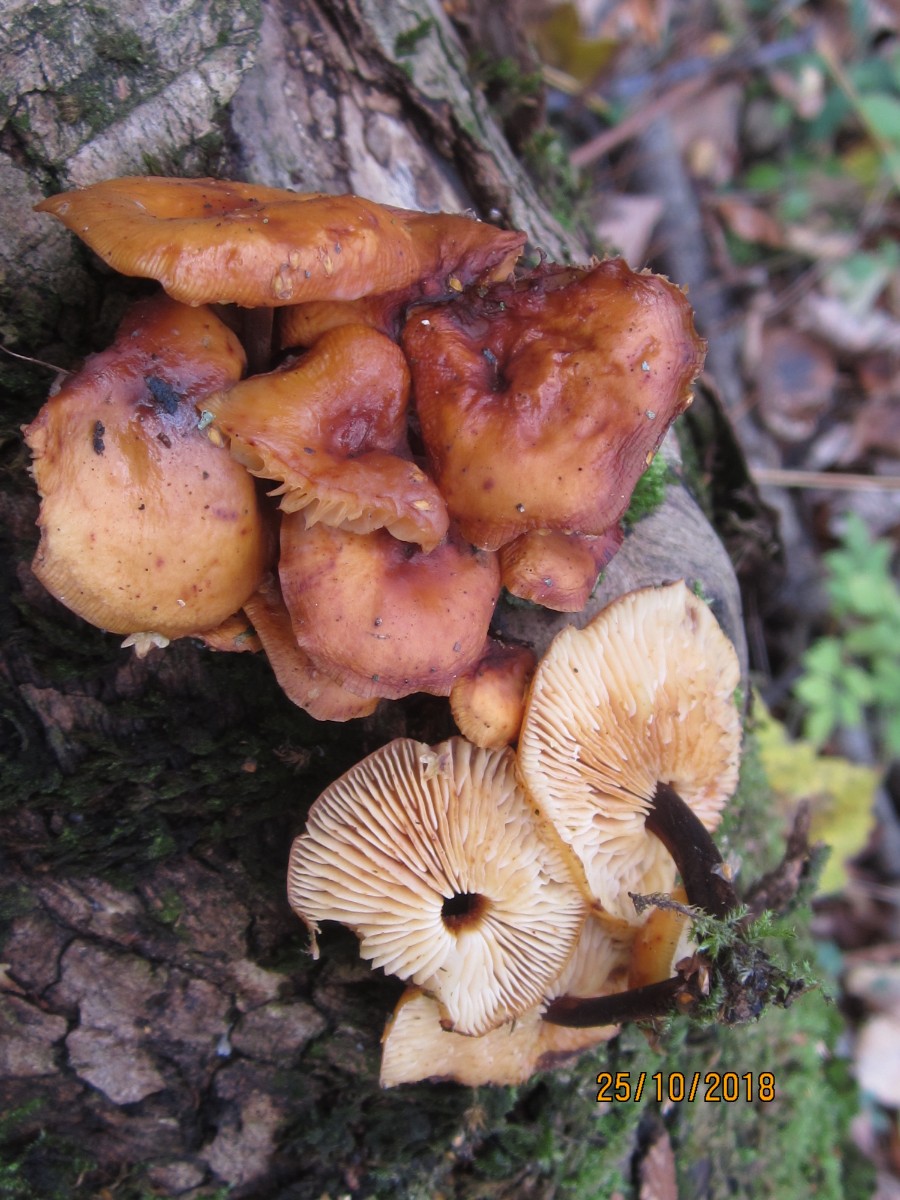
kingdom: Fungi
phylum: Basidiomycota
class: Agaricomycetes
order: Agaricales
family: Physalacriaceae
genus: Flammulina
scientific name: Flammulina velutipes
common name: gul fløjlsfod
